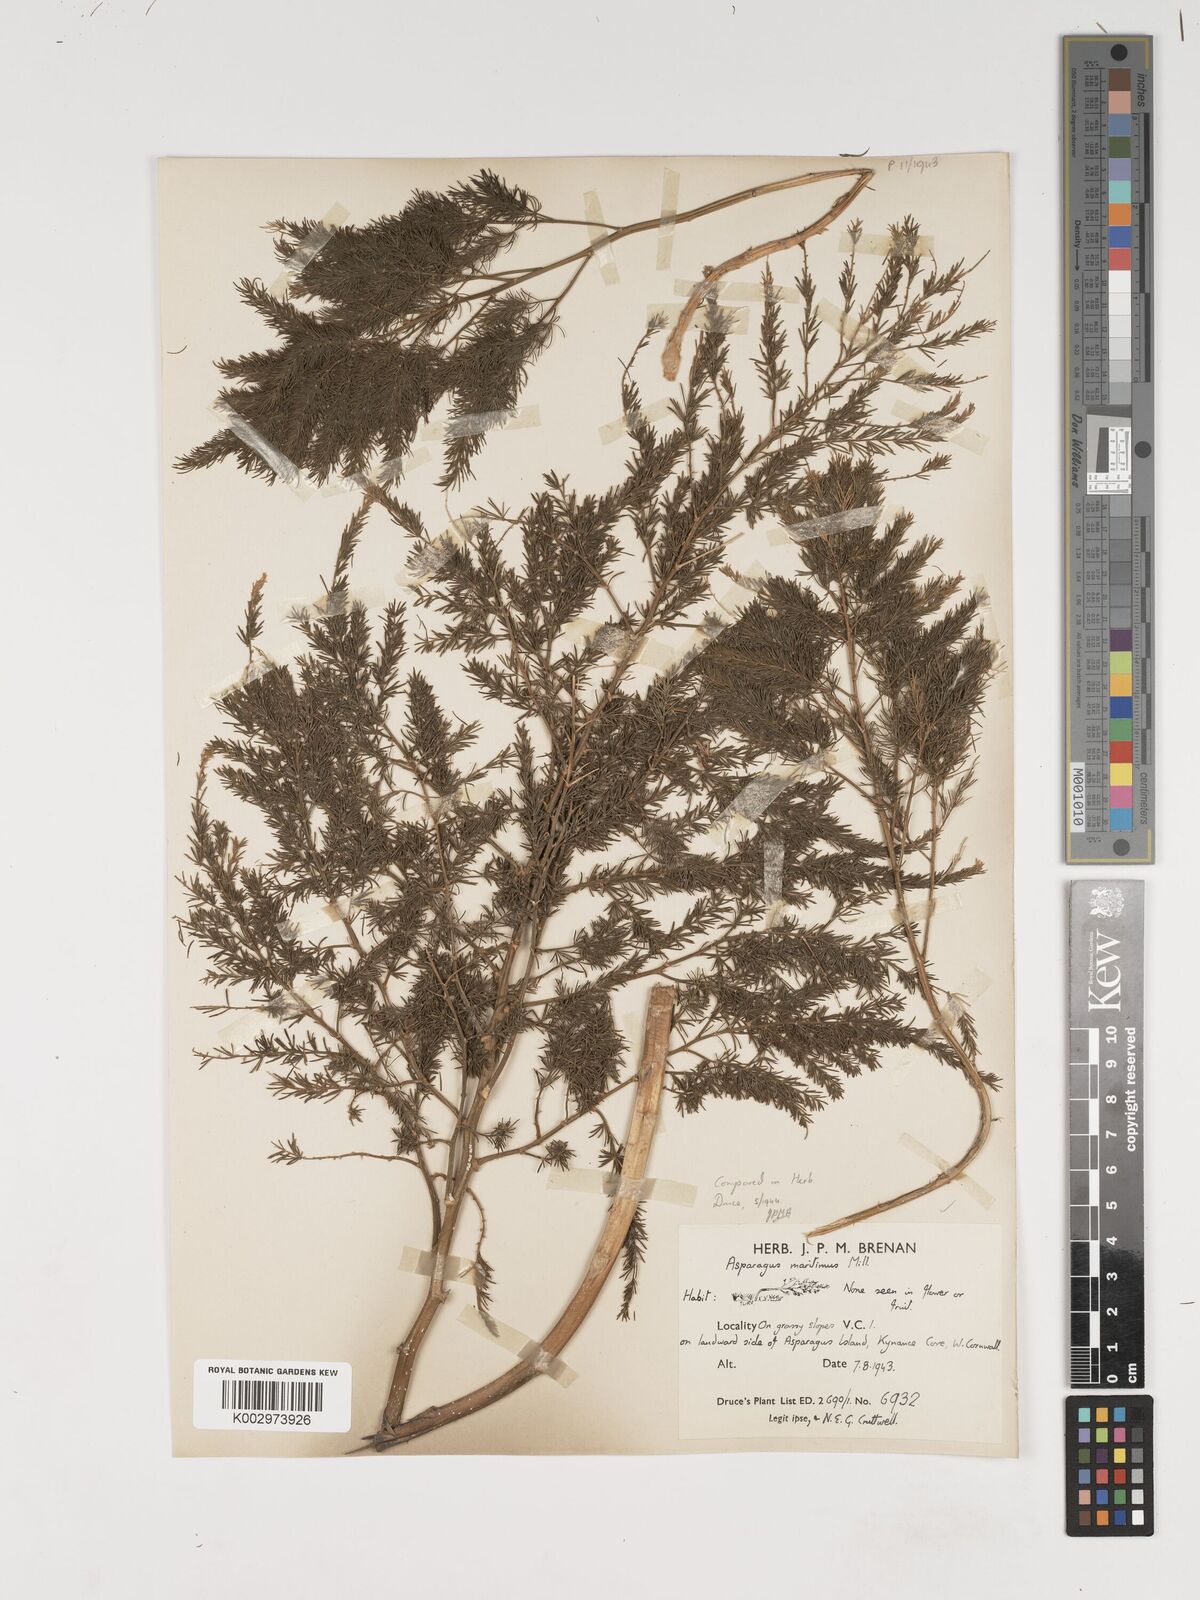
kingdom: Plantae
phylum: Tracheophyta
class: Liliopsida
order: Asparagales
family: Asparagaceae
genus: Asparagus
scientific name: Asparagus officinalis
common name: Garden asparagus
